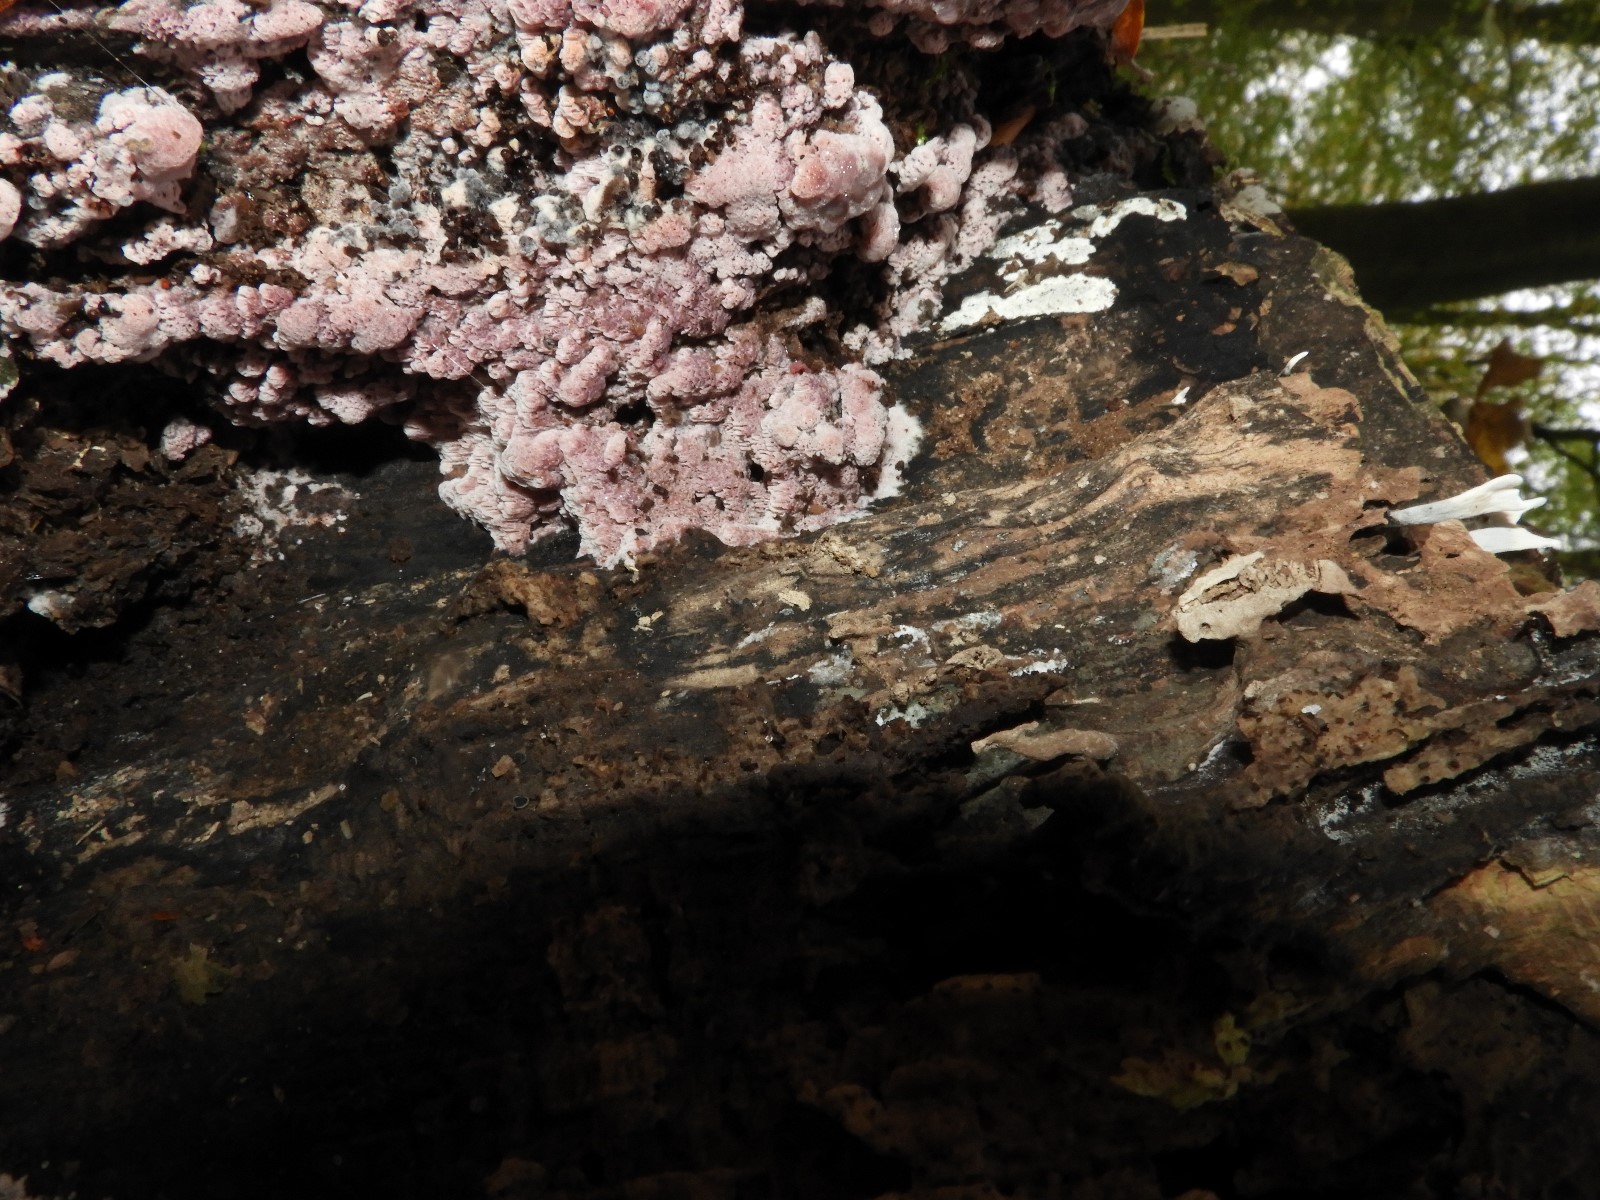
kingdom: Fungi
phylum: Basidiomycota
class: Agaricomycetes
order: Polyporales
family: Irpicaceae
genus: Ceriporia
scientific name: Ceriporia excelsa
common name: lilla voksporesvamp
